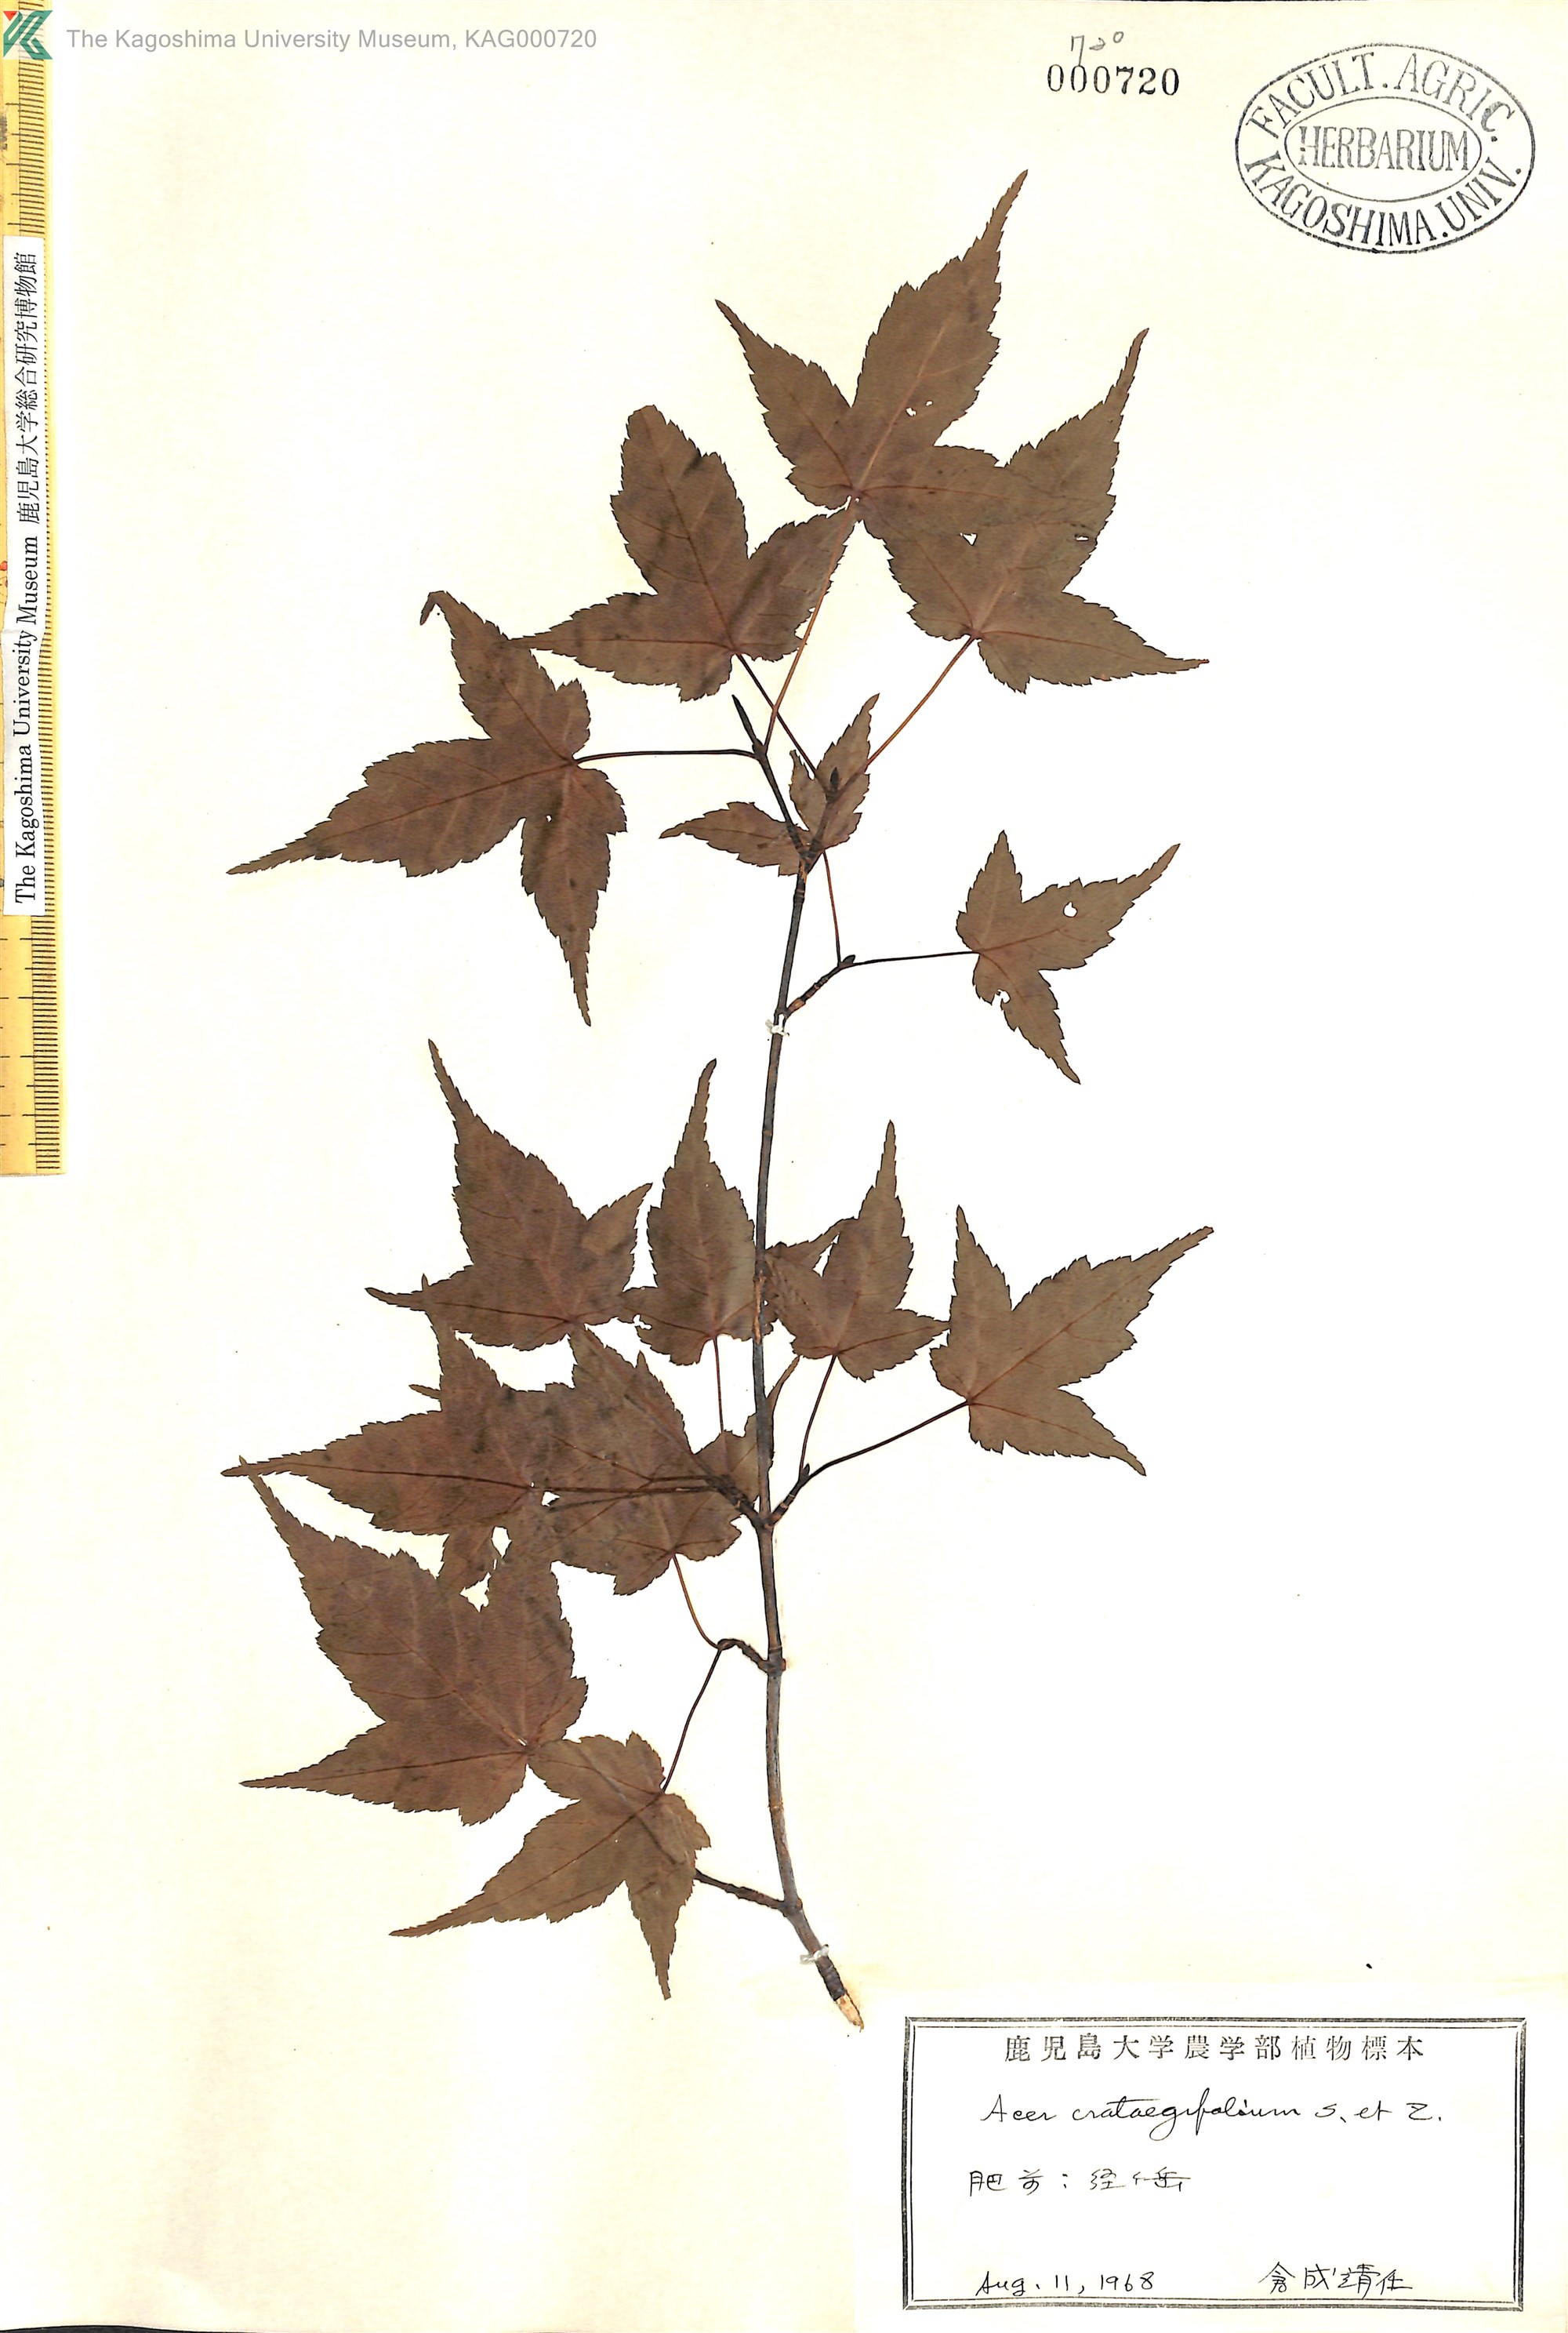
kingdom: Plantae
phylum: Tracheophyta
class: Magnoliopsida
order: Sapindales
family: Sapindaceae
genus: Acer
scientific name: Acer crataegifolium
